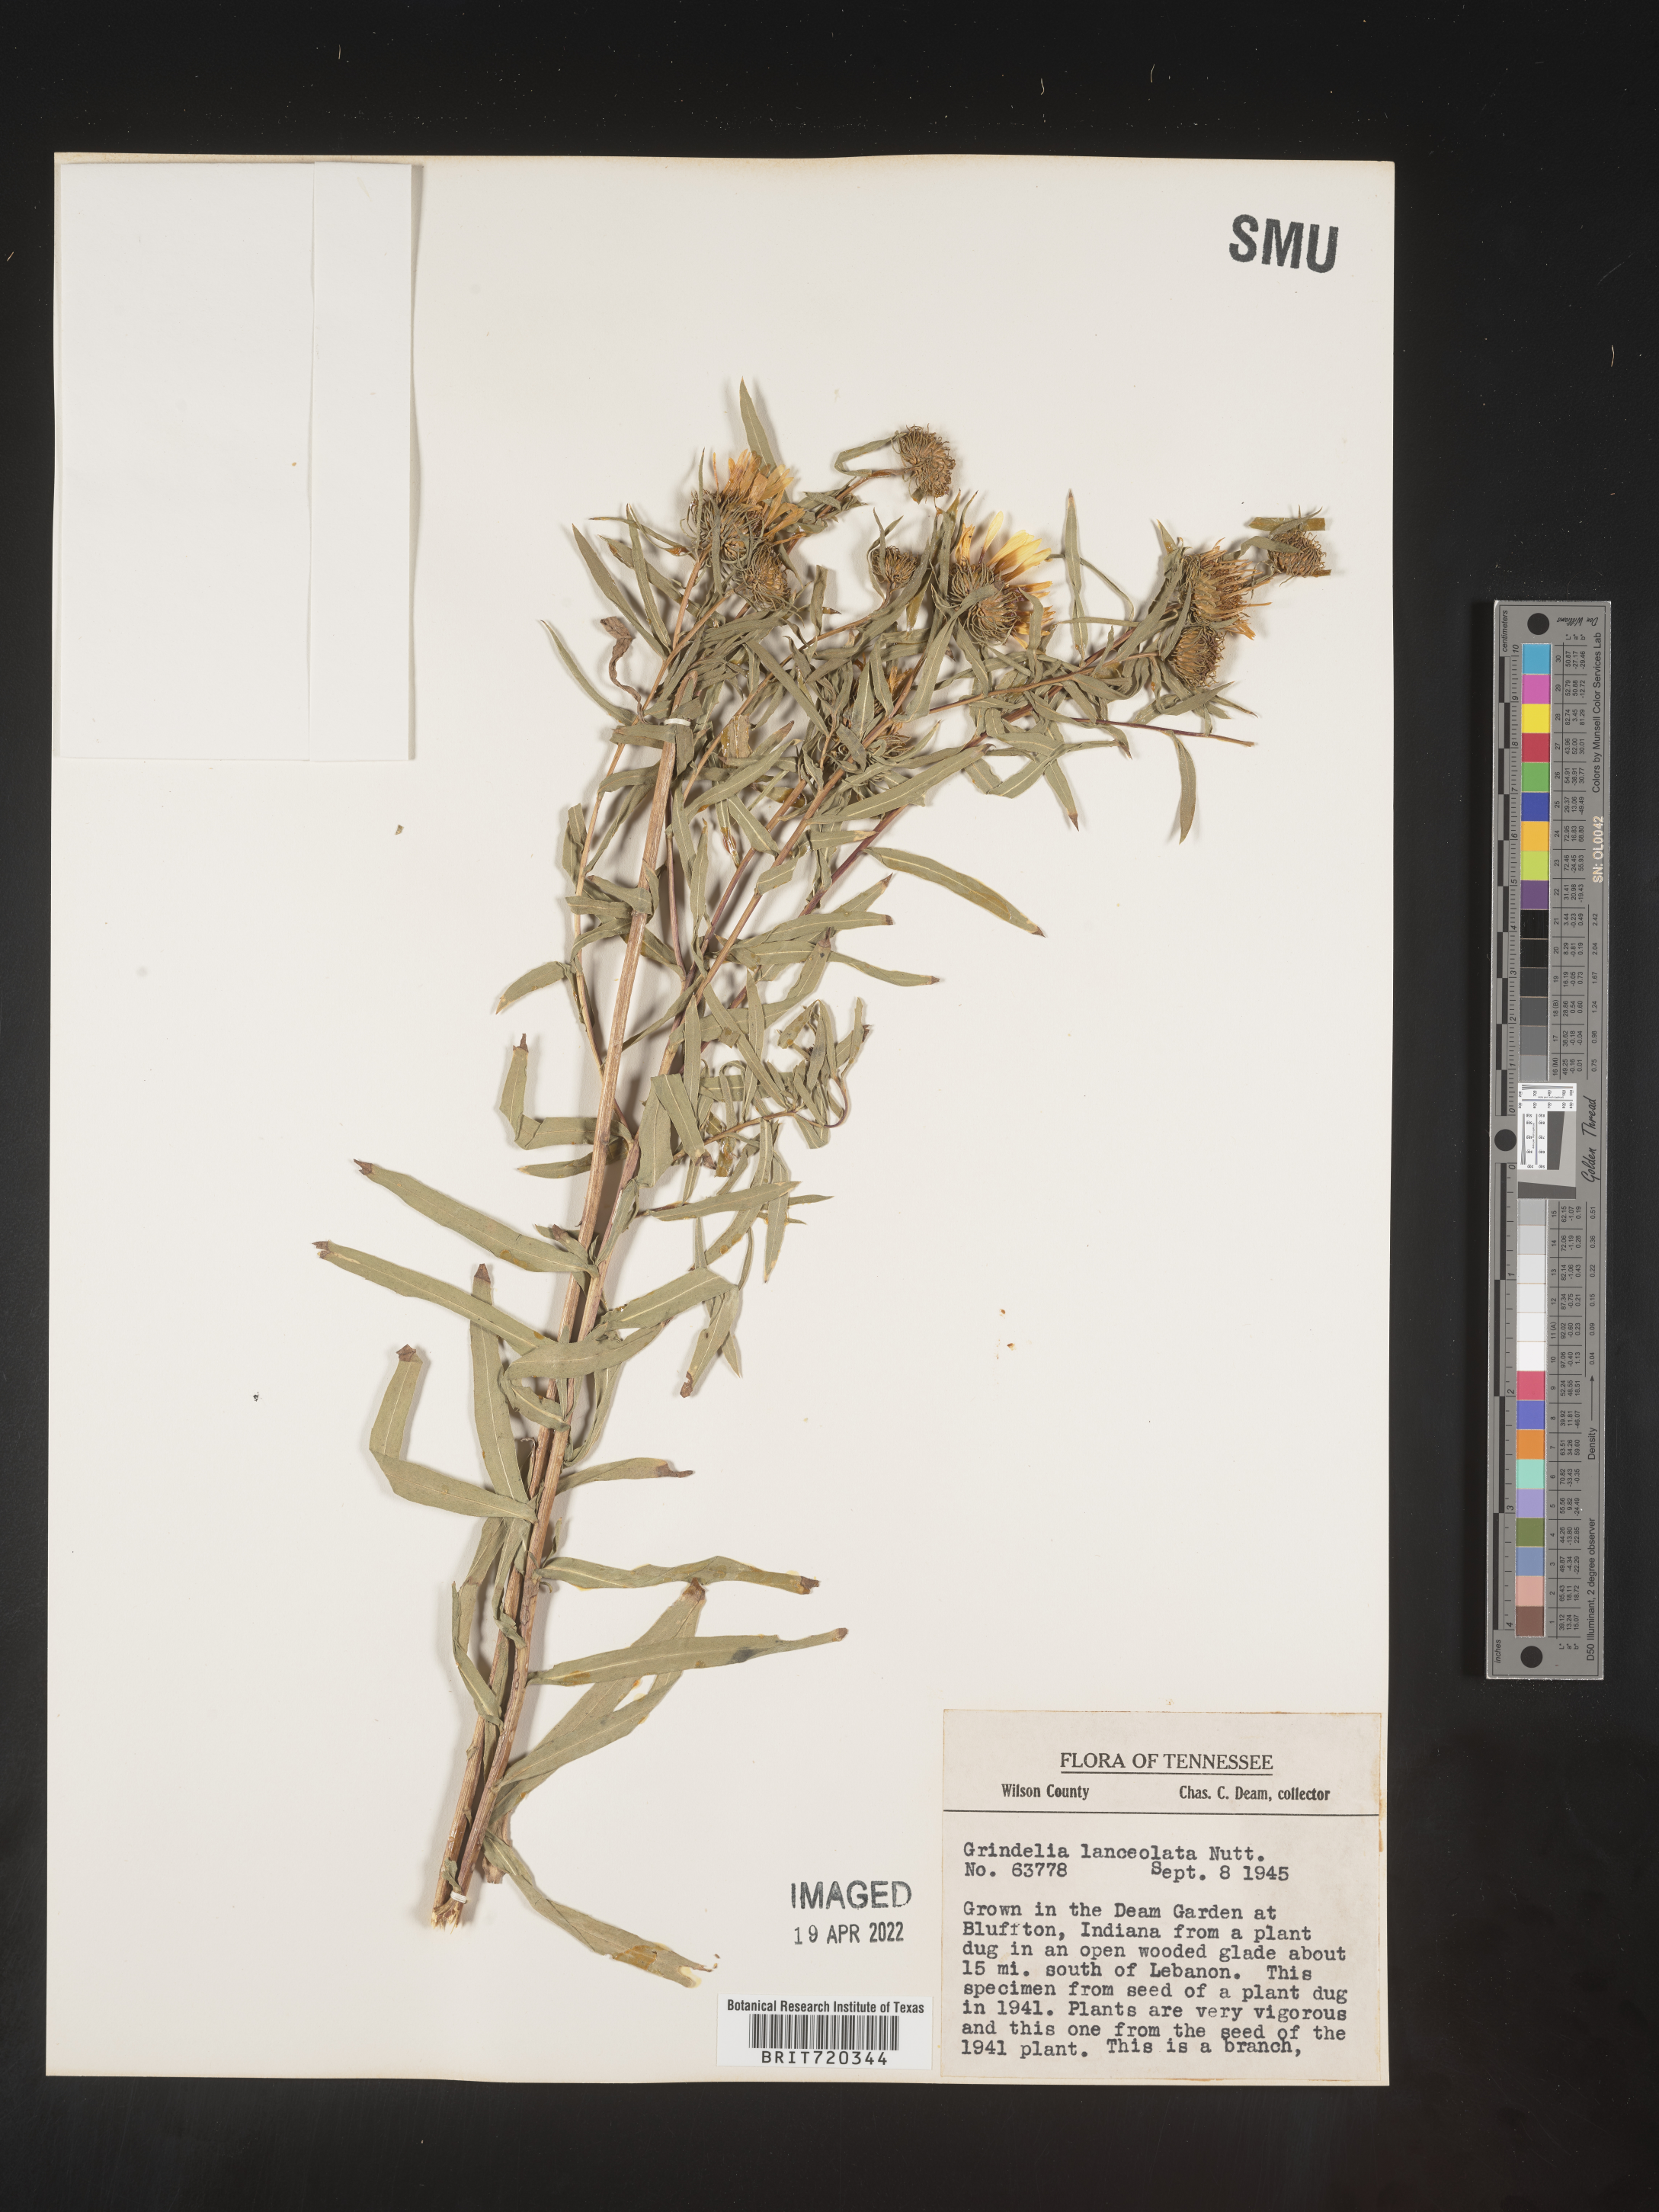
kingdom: Plantae
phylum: Tracheophyta
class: Magnoliopsida
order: Asterales
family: Asteraceae
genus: Grindelia
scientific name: Grindelia
